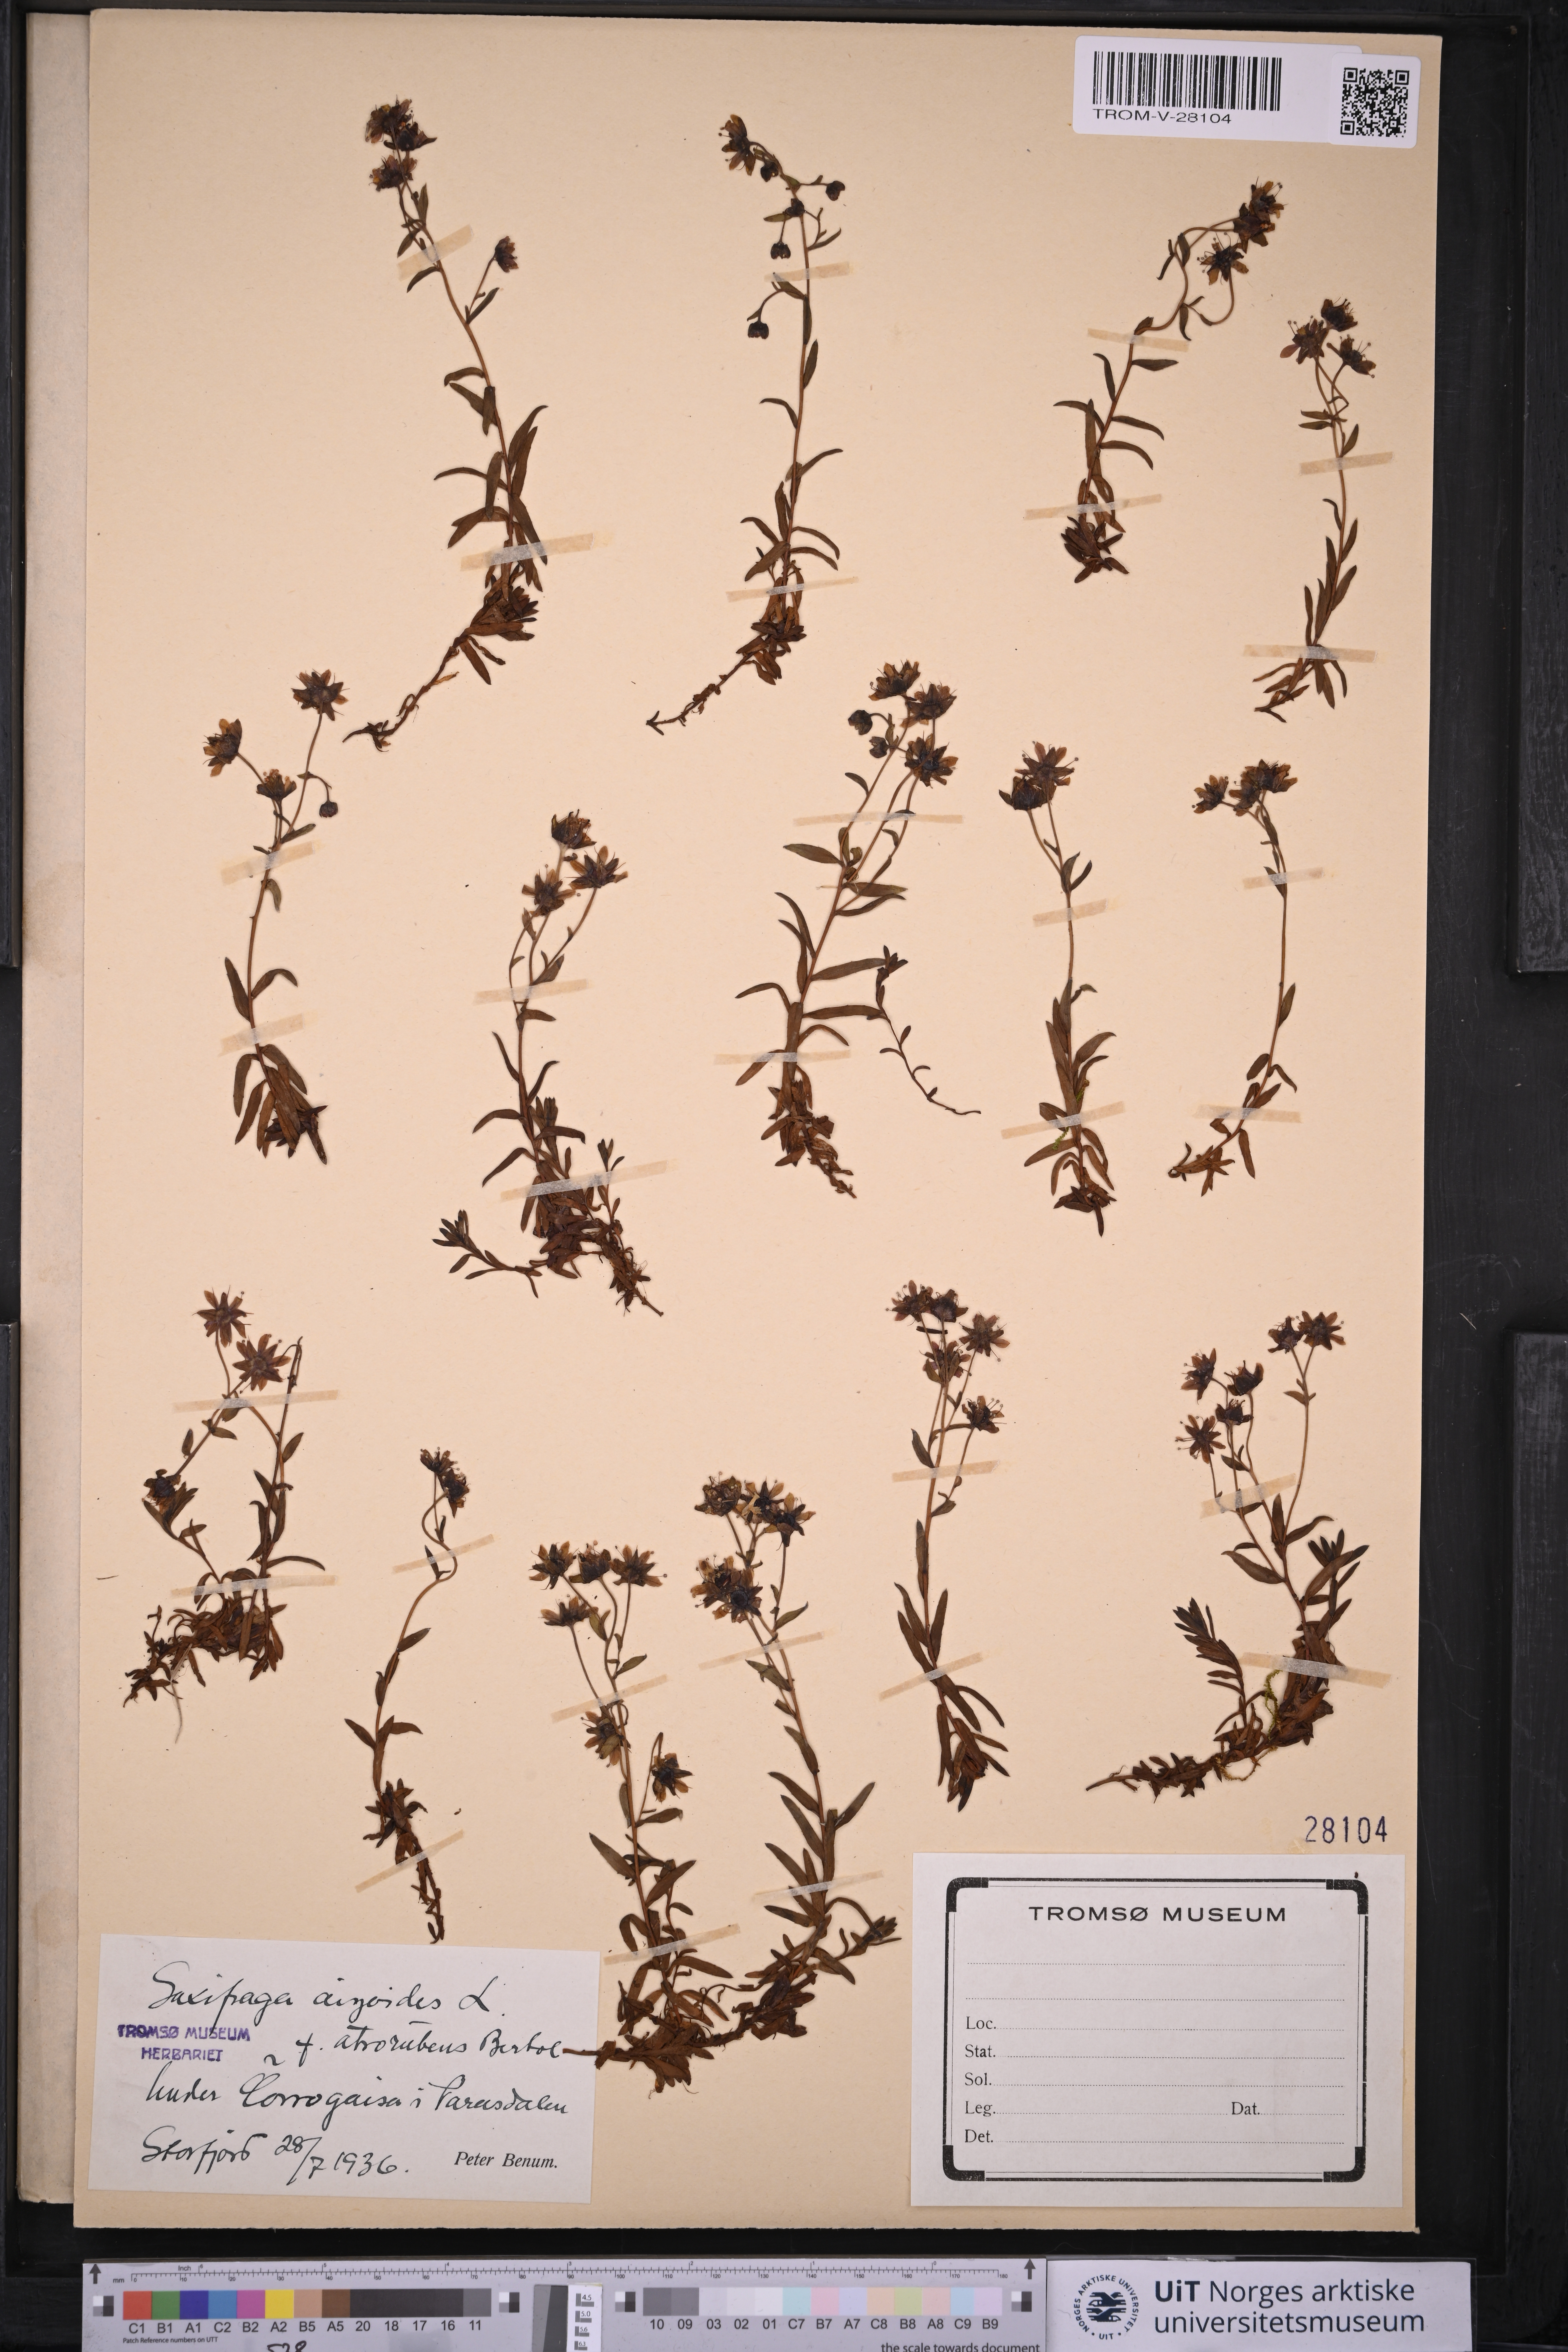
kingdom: Plantae
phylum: Tracheophyta
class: Magnoliopsida
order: Saxifragales
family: Saxifragaceae
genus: Saxifraga
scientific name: Saxifraga aizoides
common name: Yellow mountain saxifrage
